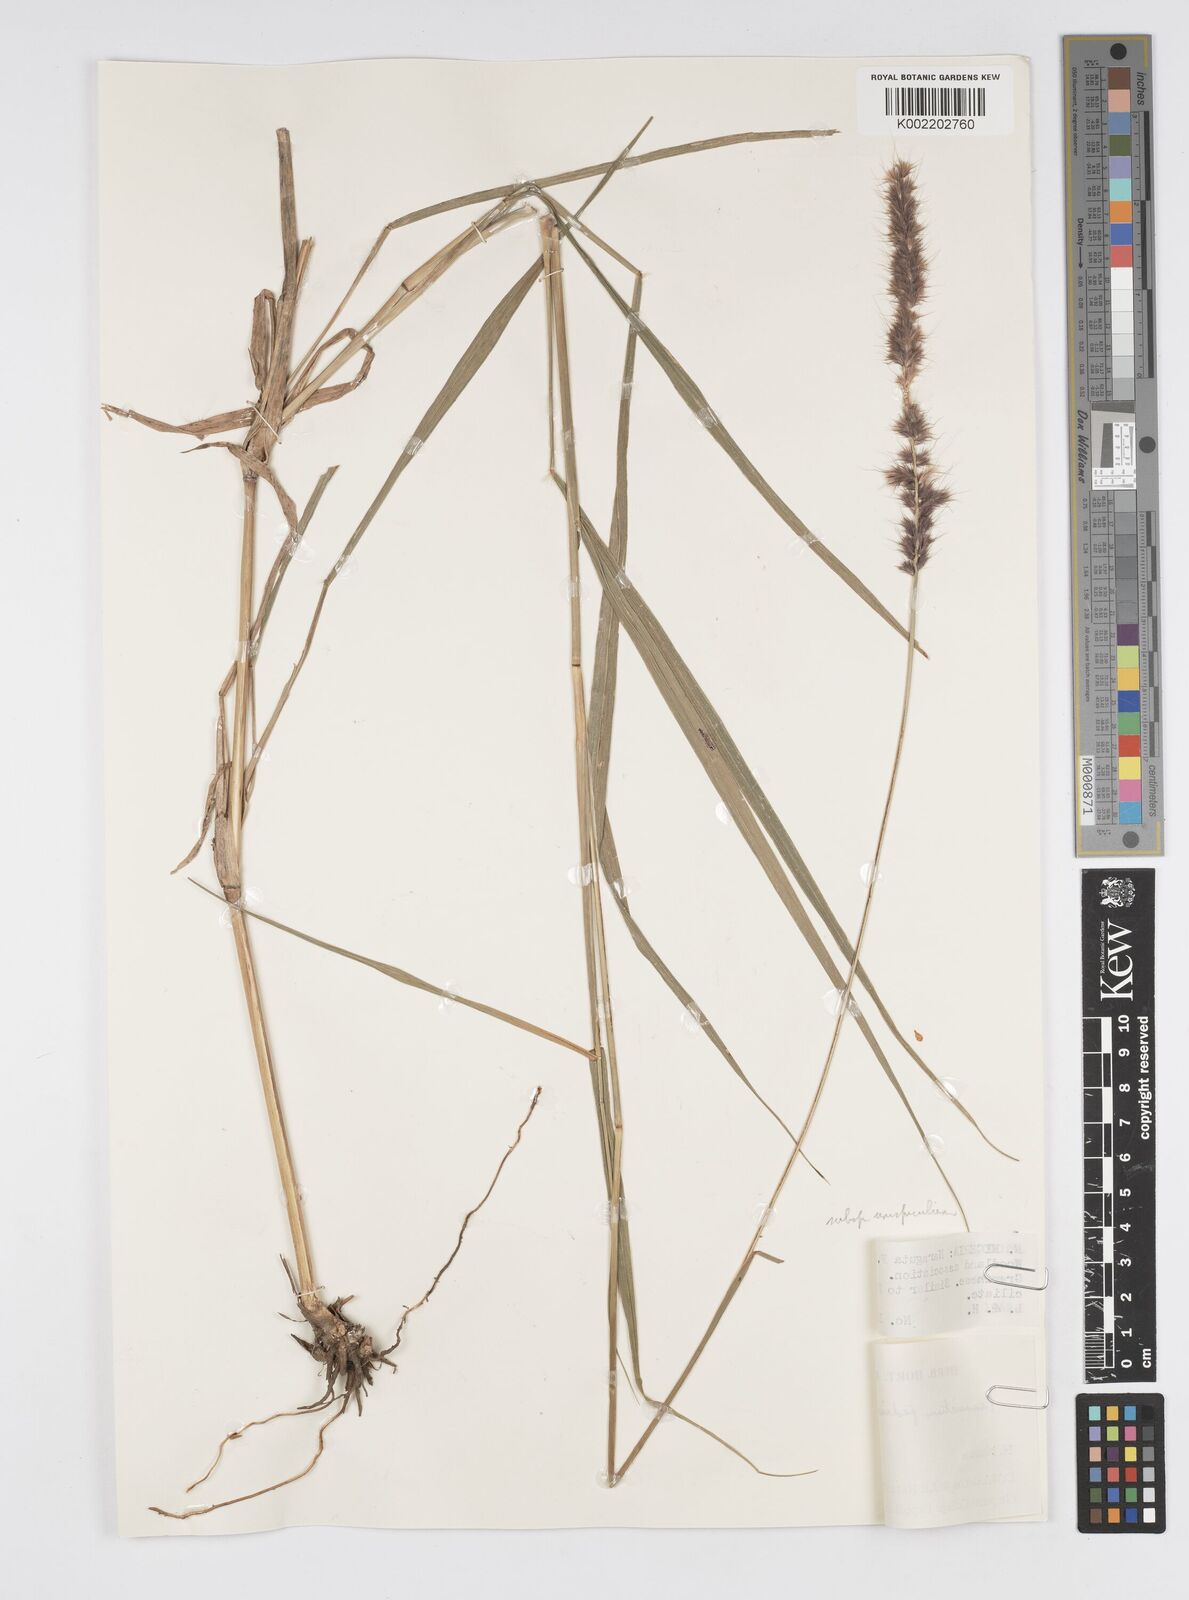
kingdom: Plantae
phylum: Tracheophyta
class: Liliopsida
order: Poales
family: Poaceae
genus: Cenchrus
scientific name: Cenchrus pedicellatus
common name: Hairy fountain grass
